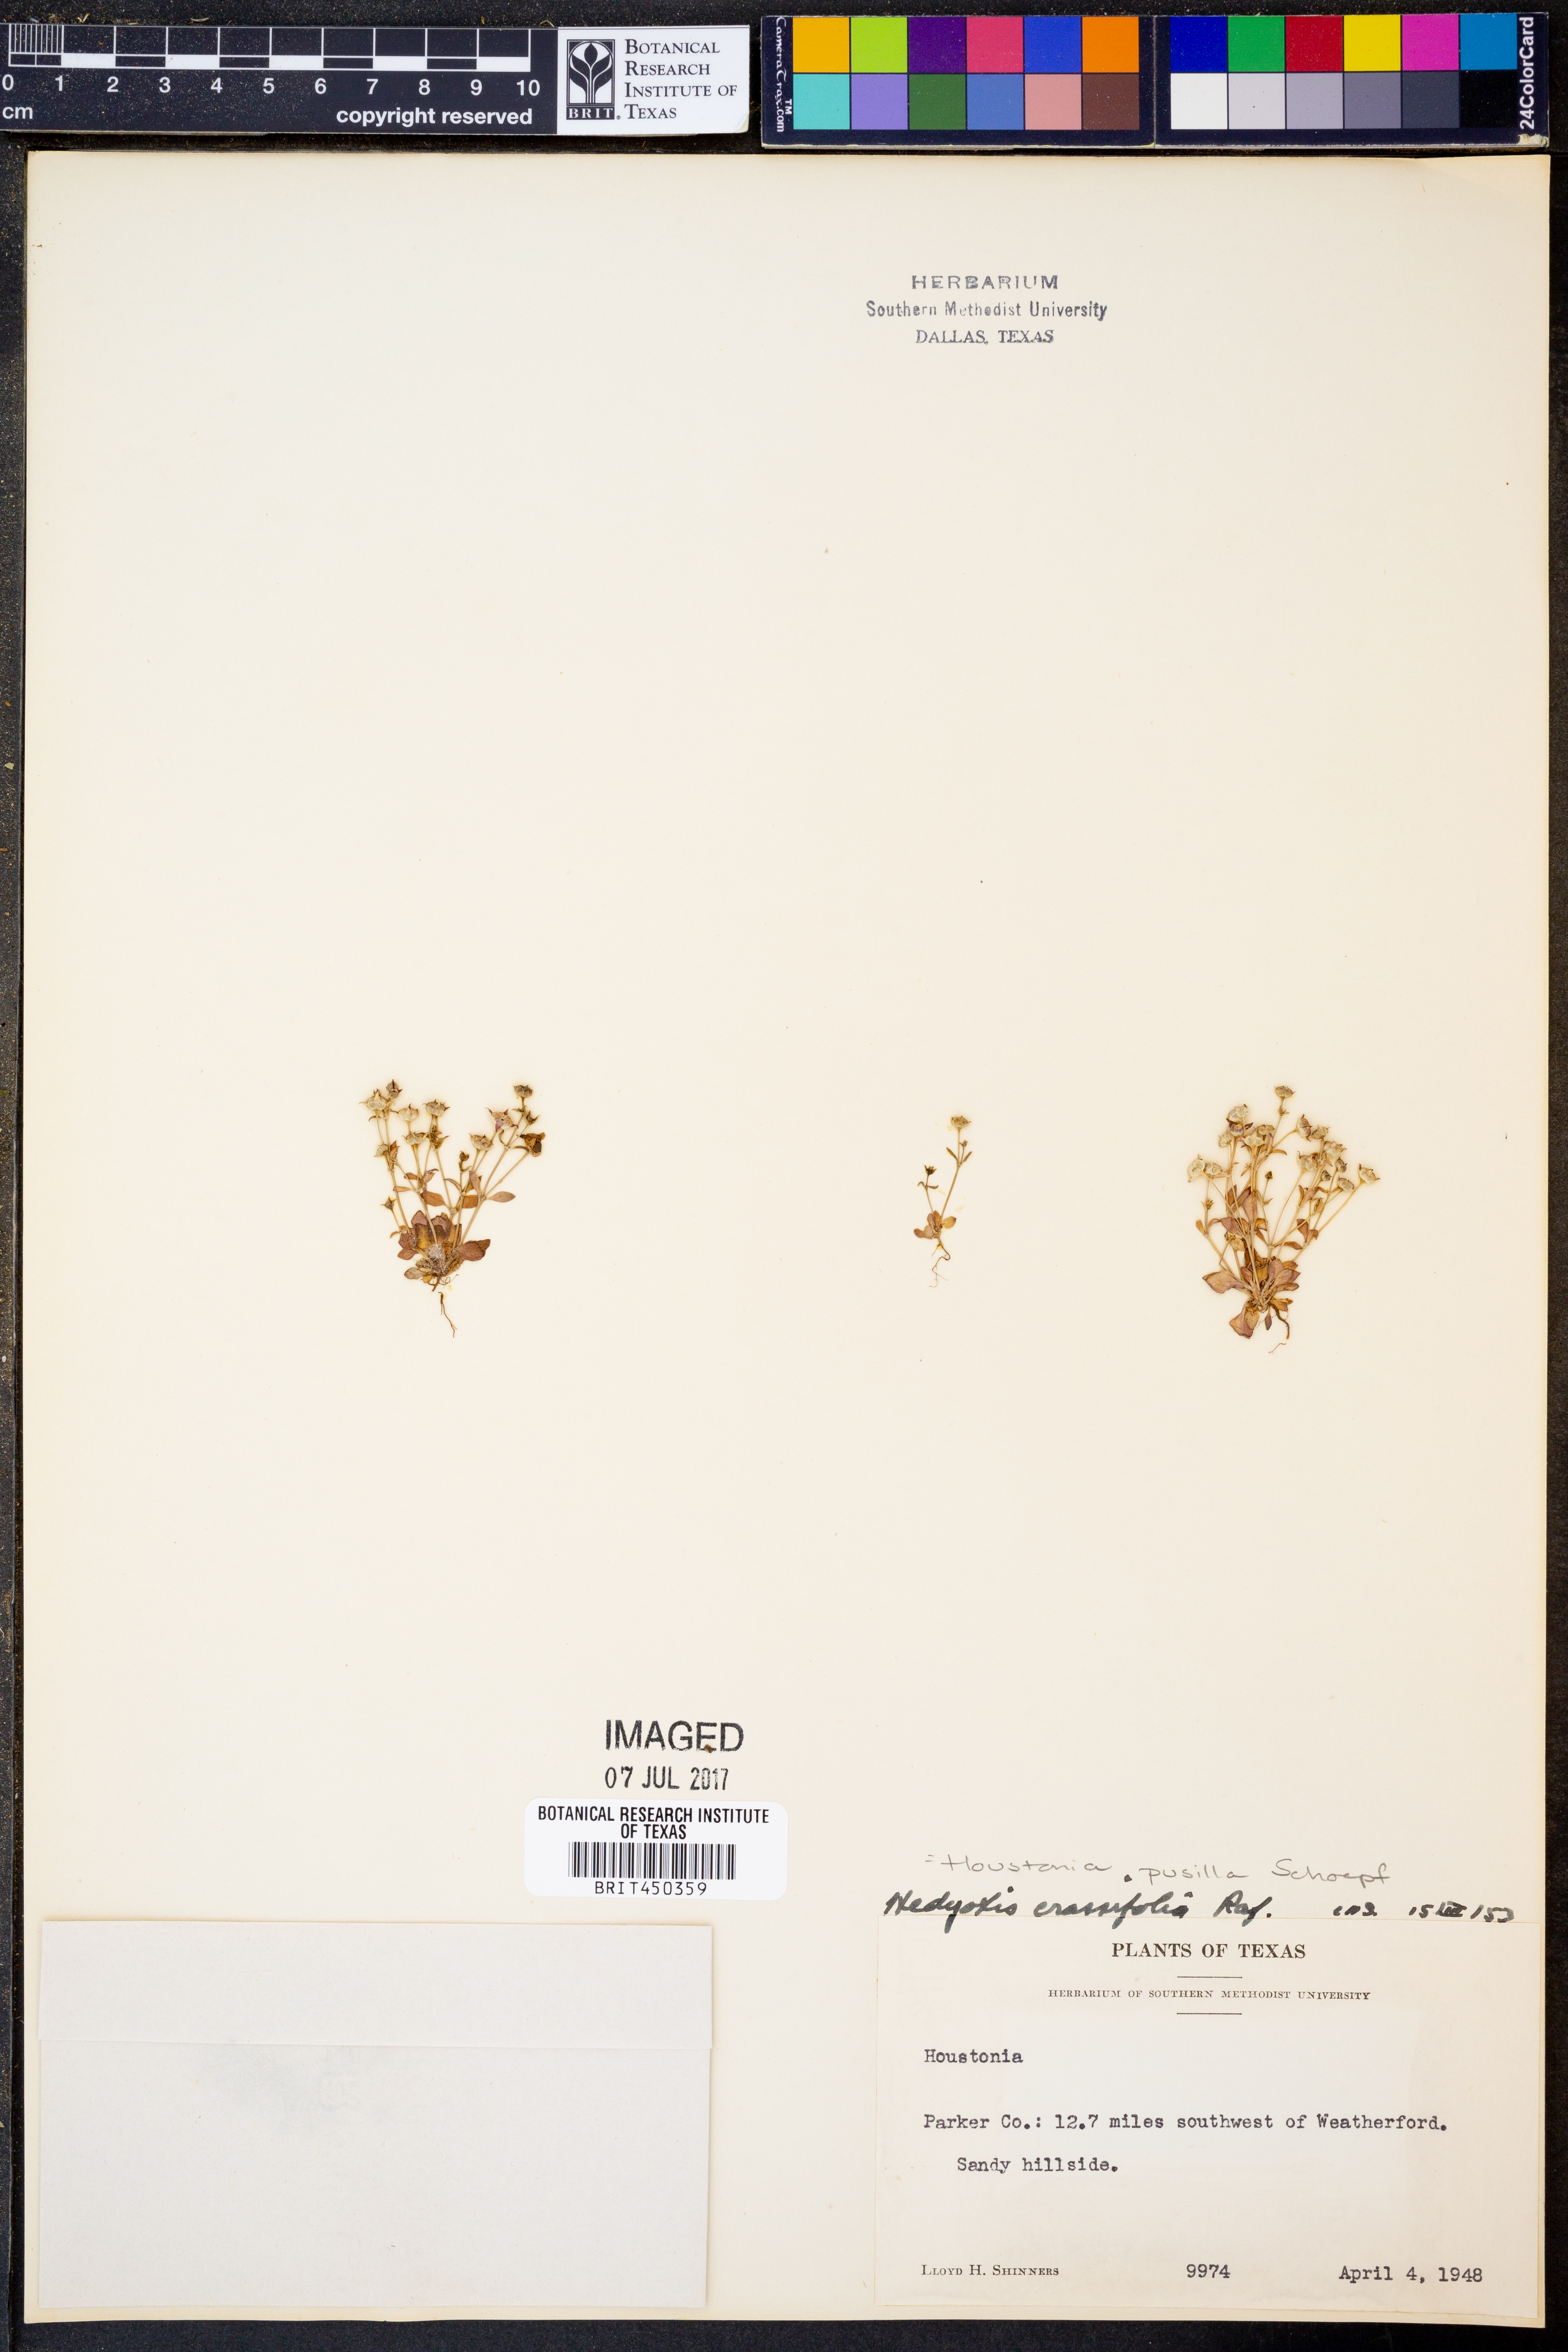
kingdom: Plantae
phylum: Tracheophyta
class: Magnoliopsida
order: Gentianales
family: Rubiaceae
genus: Houstonia
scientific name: Houstonia pusilla
